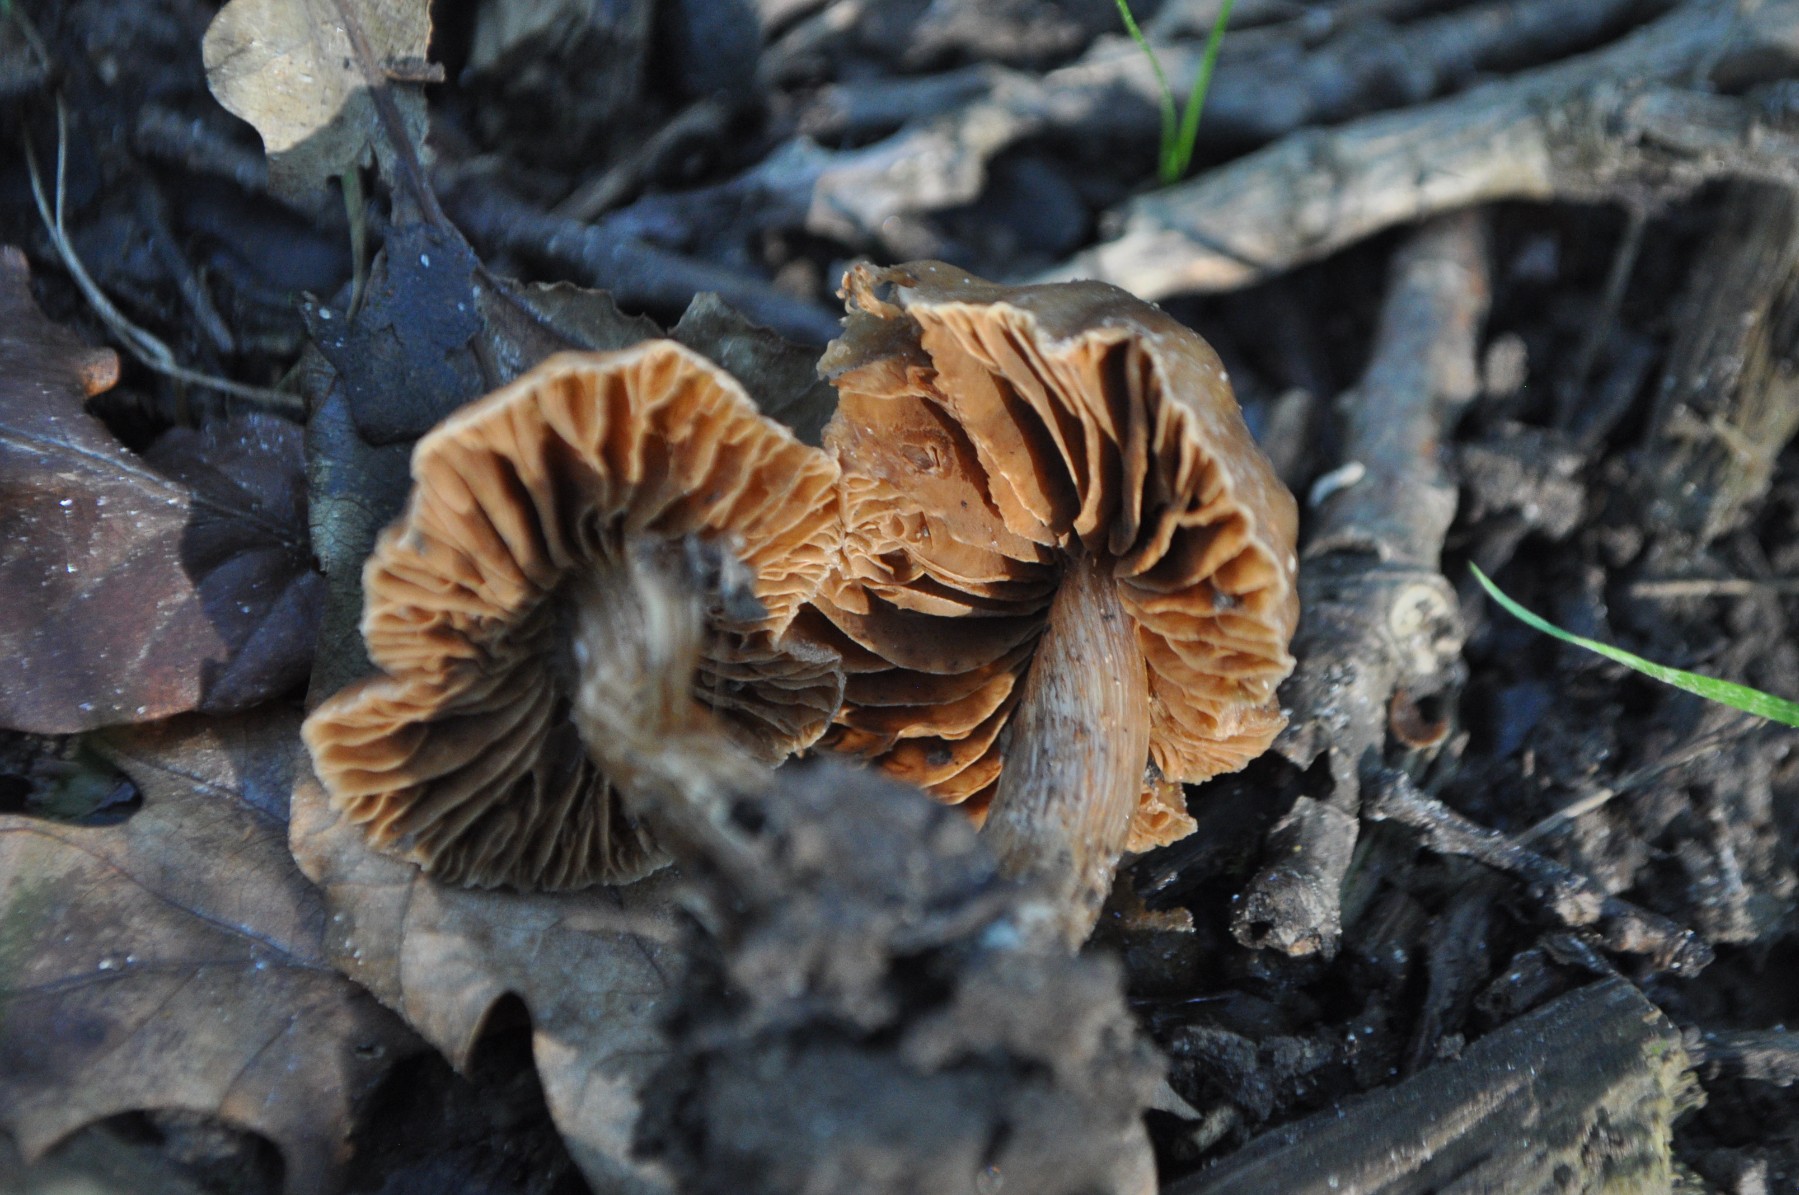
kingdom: Fungi
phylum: Basidiomycota
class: Agaricomycetes
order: Agaricales
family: Cortinariaceae
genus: Cortinarius
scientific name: Cortinarius
